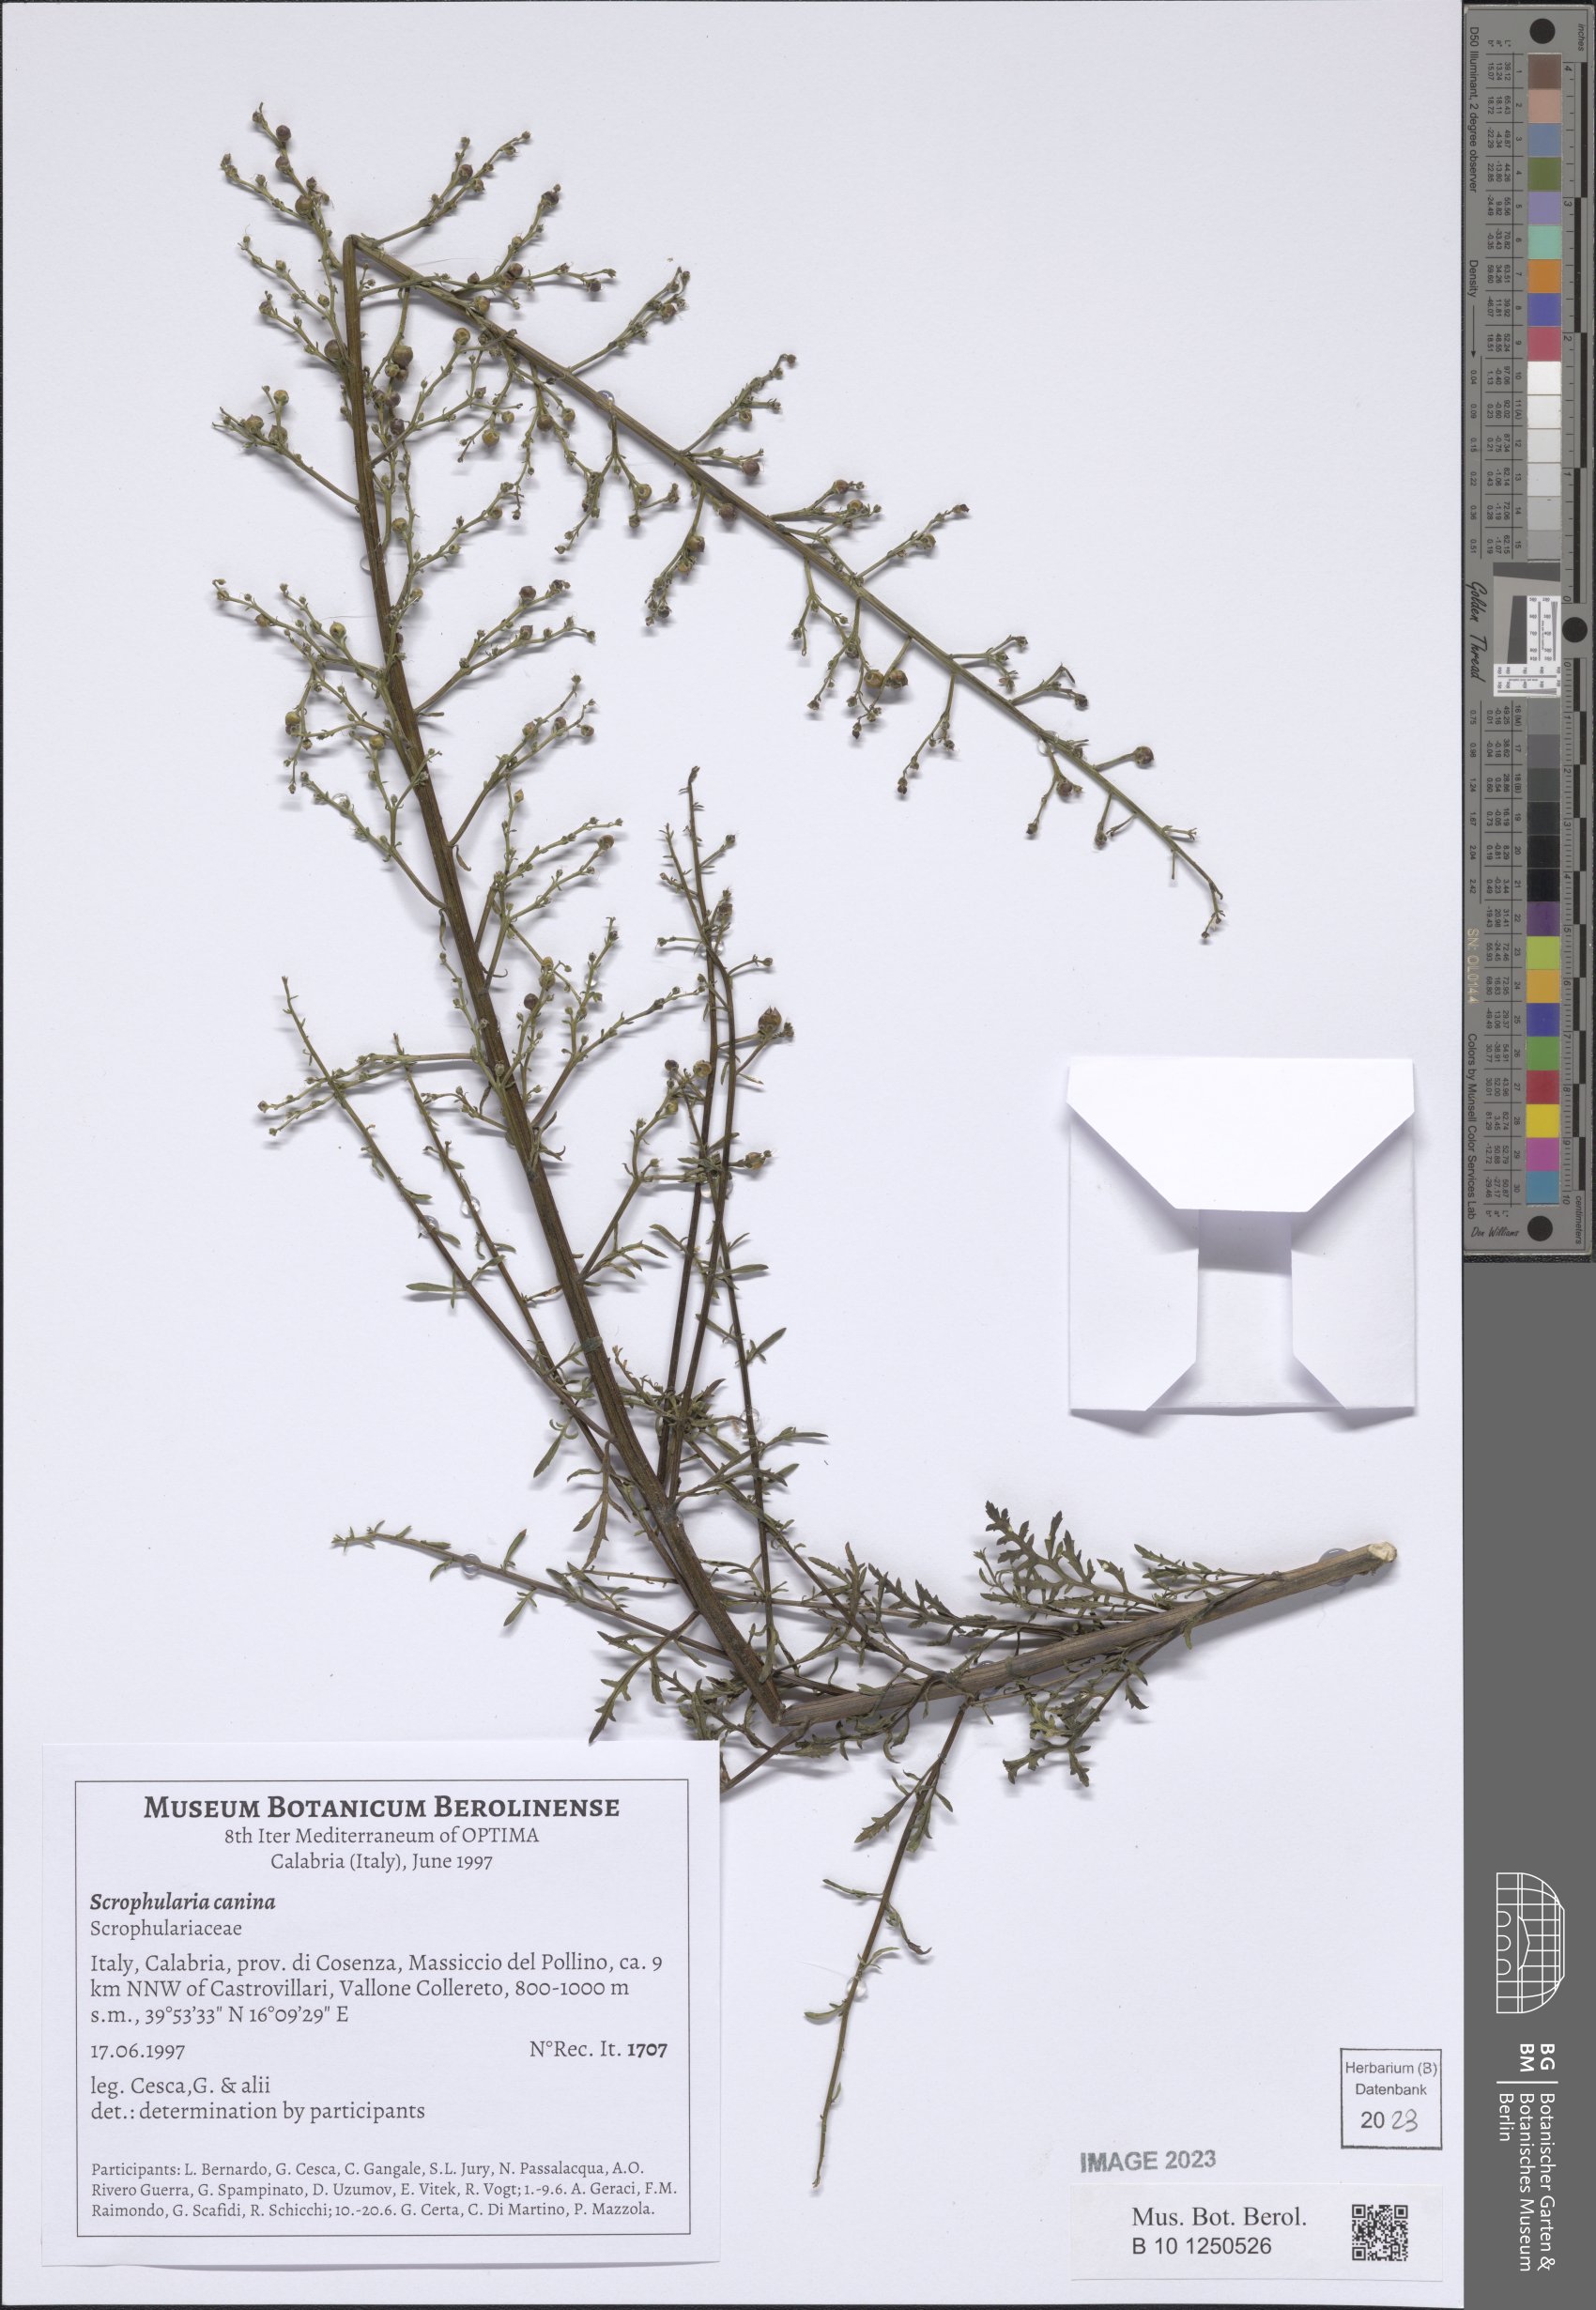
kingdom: Plantae
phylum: Tracheophyta
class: Magnoliopsida
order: Lamiales
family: Scrophulariaceae
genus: Scrophularia
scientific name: Scrophularia canina
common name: French figwort
